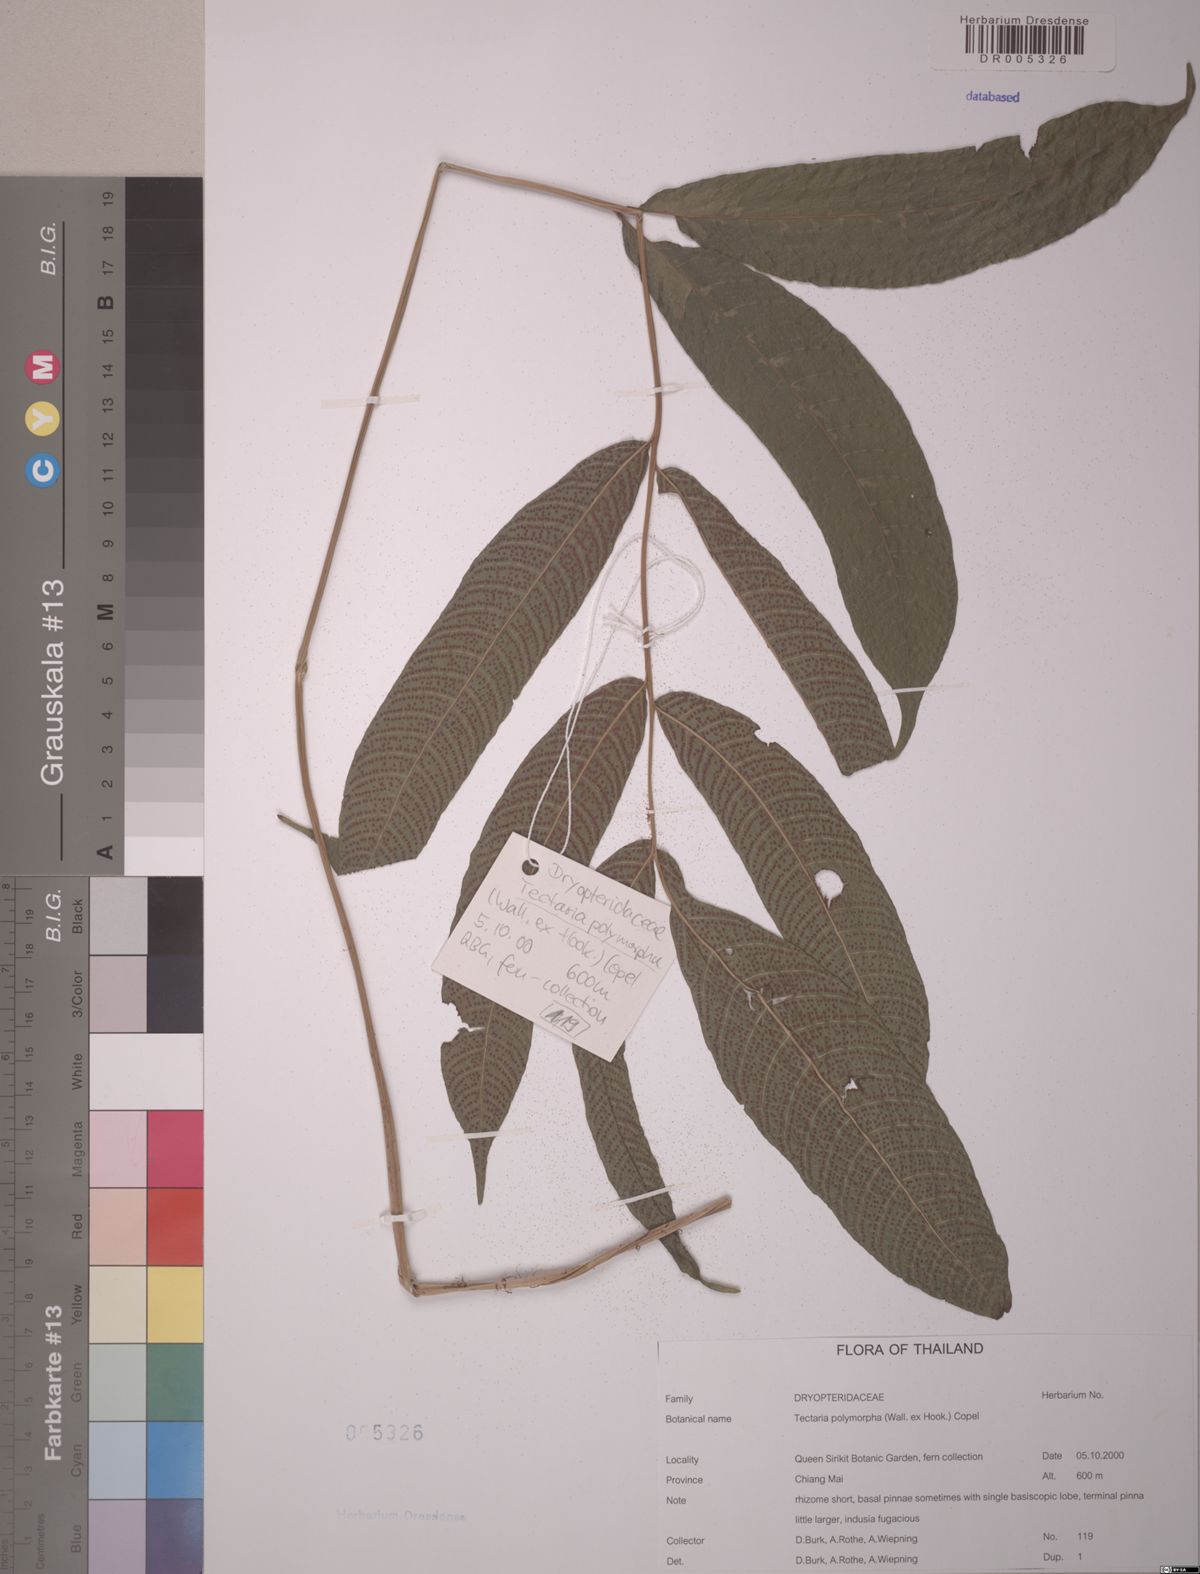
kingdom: Plantae
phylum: Tracheophyta
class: Polypodiopsida
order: Polypodiales
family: Tectariaceae
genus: Tectaria
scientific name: Tectaria polymorpha
